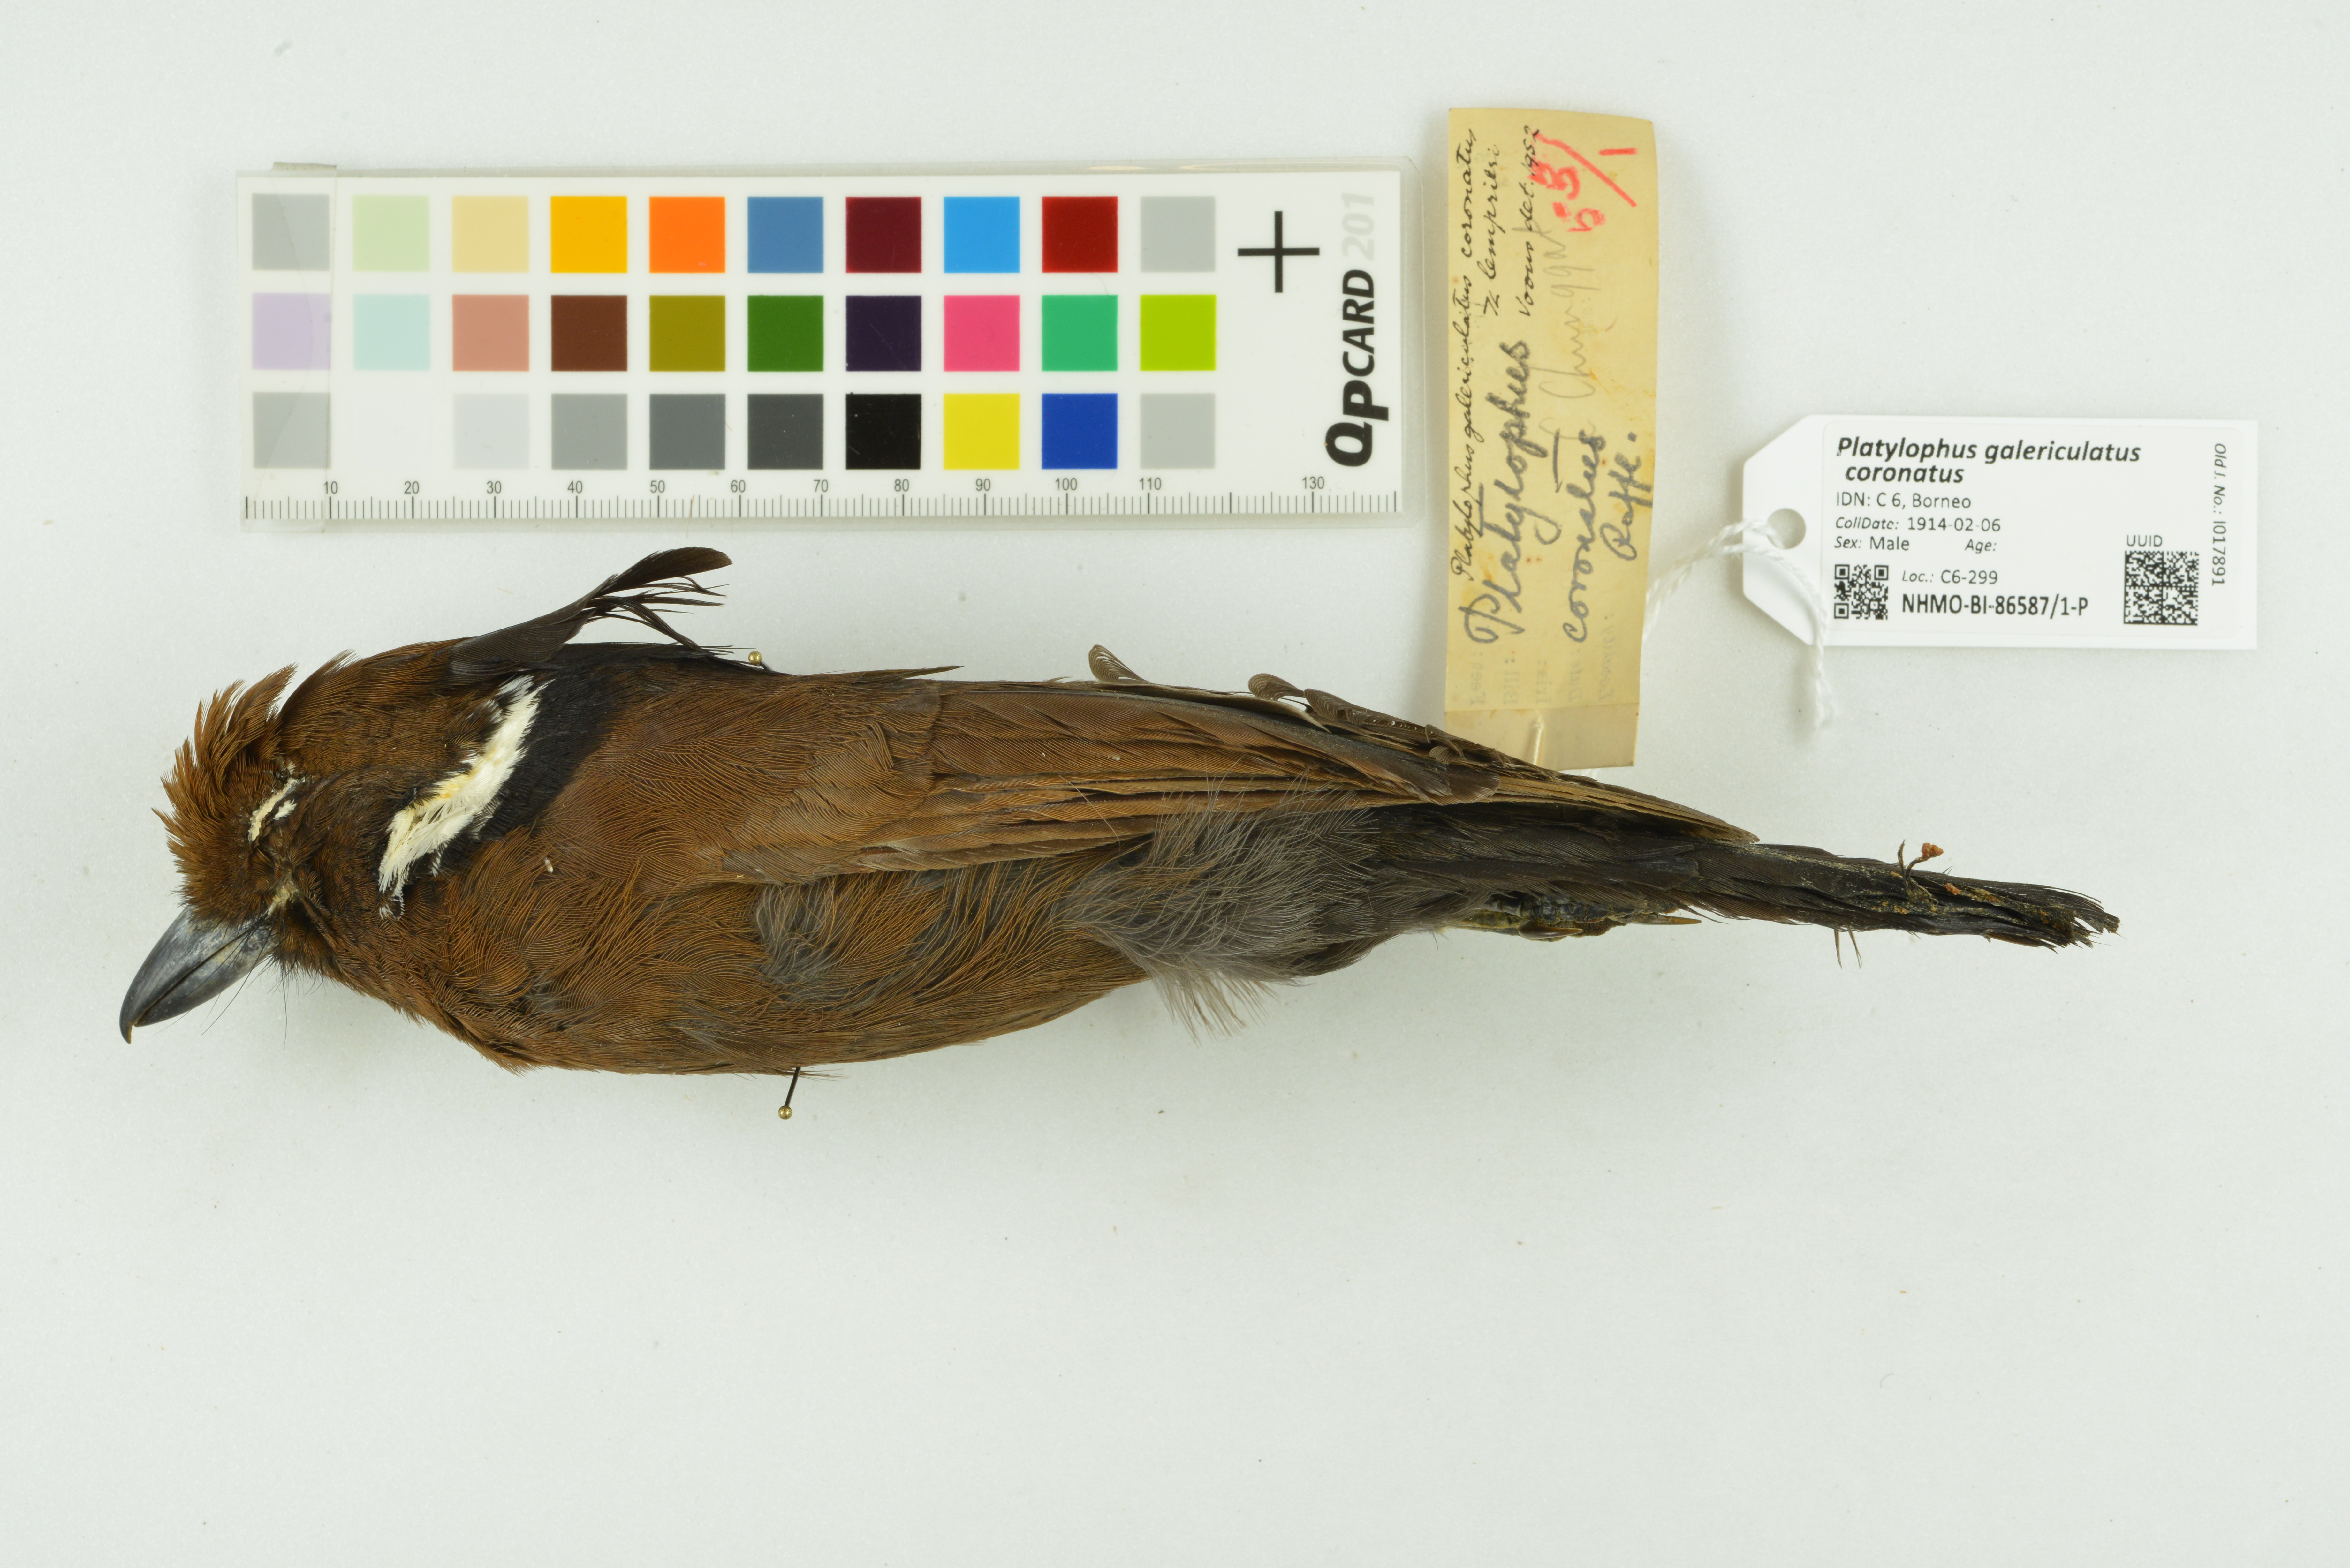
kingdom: Animalia
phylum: Chordata
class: Aves
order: Passeriformes
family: Corvidae
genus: Platylophus
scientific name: Platylophus galericulatus
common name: Crested jay
